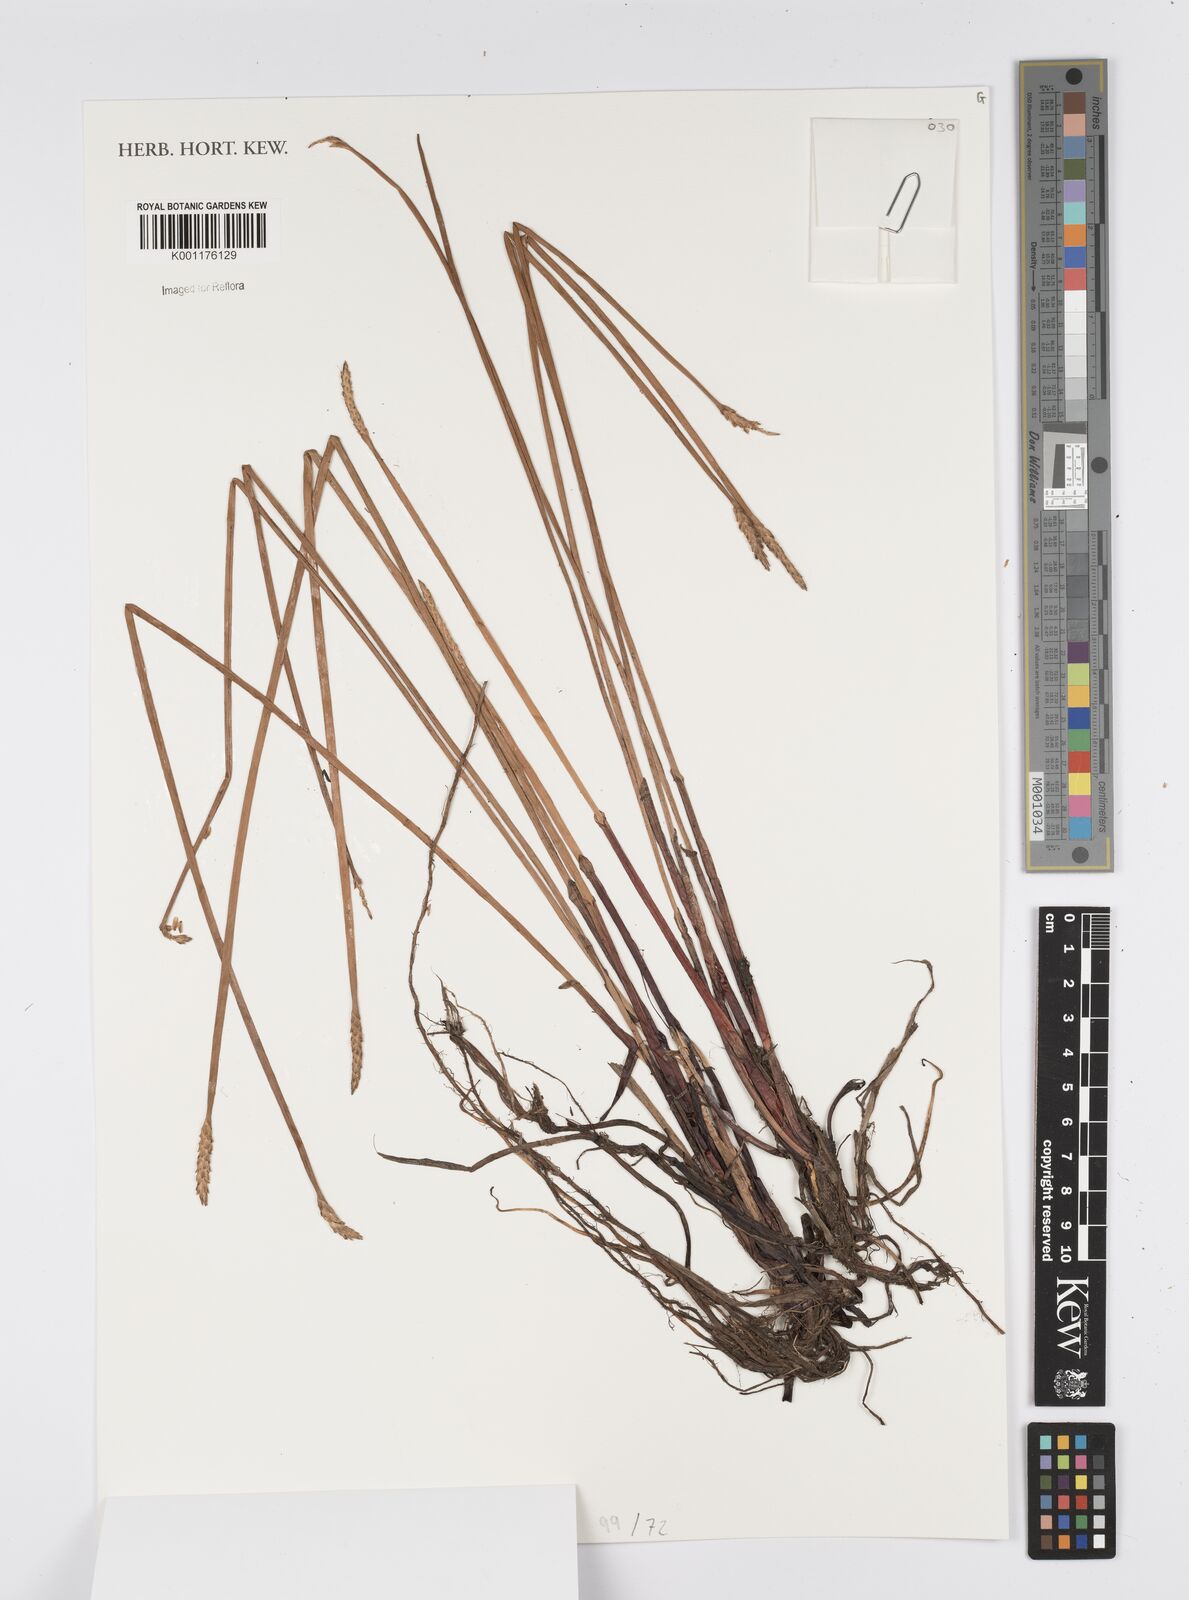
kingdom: Plantae
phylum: Tracheophyta
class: Liliopsida
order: Poales
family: Cyperaceae
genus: Eleocharis
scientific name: Eleocharis acutangula
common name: Acute spikerush
